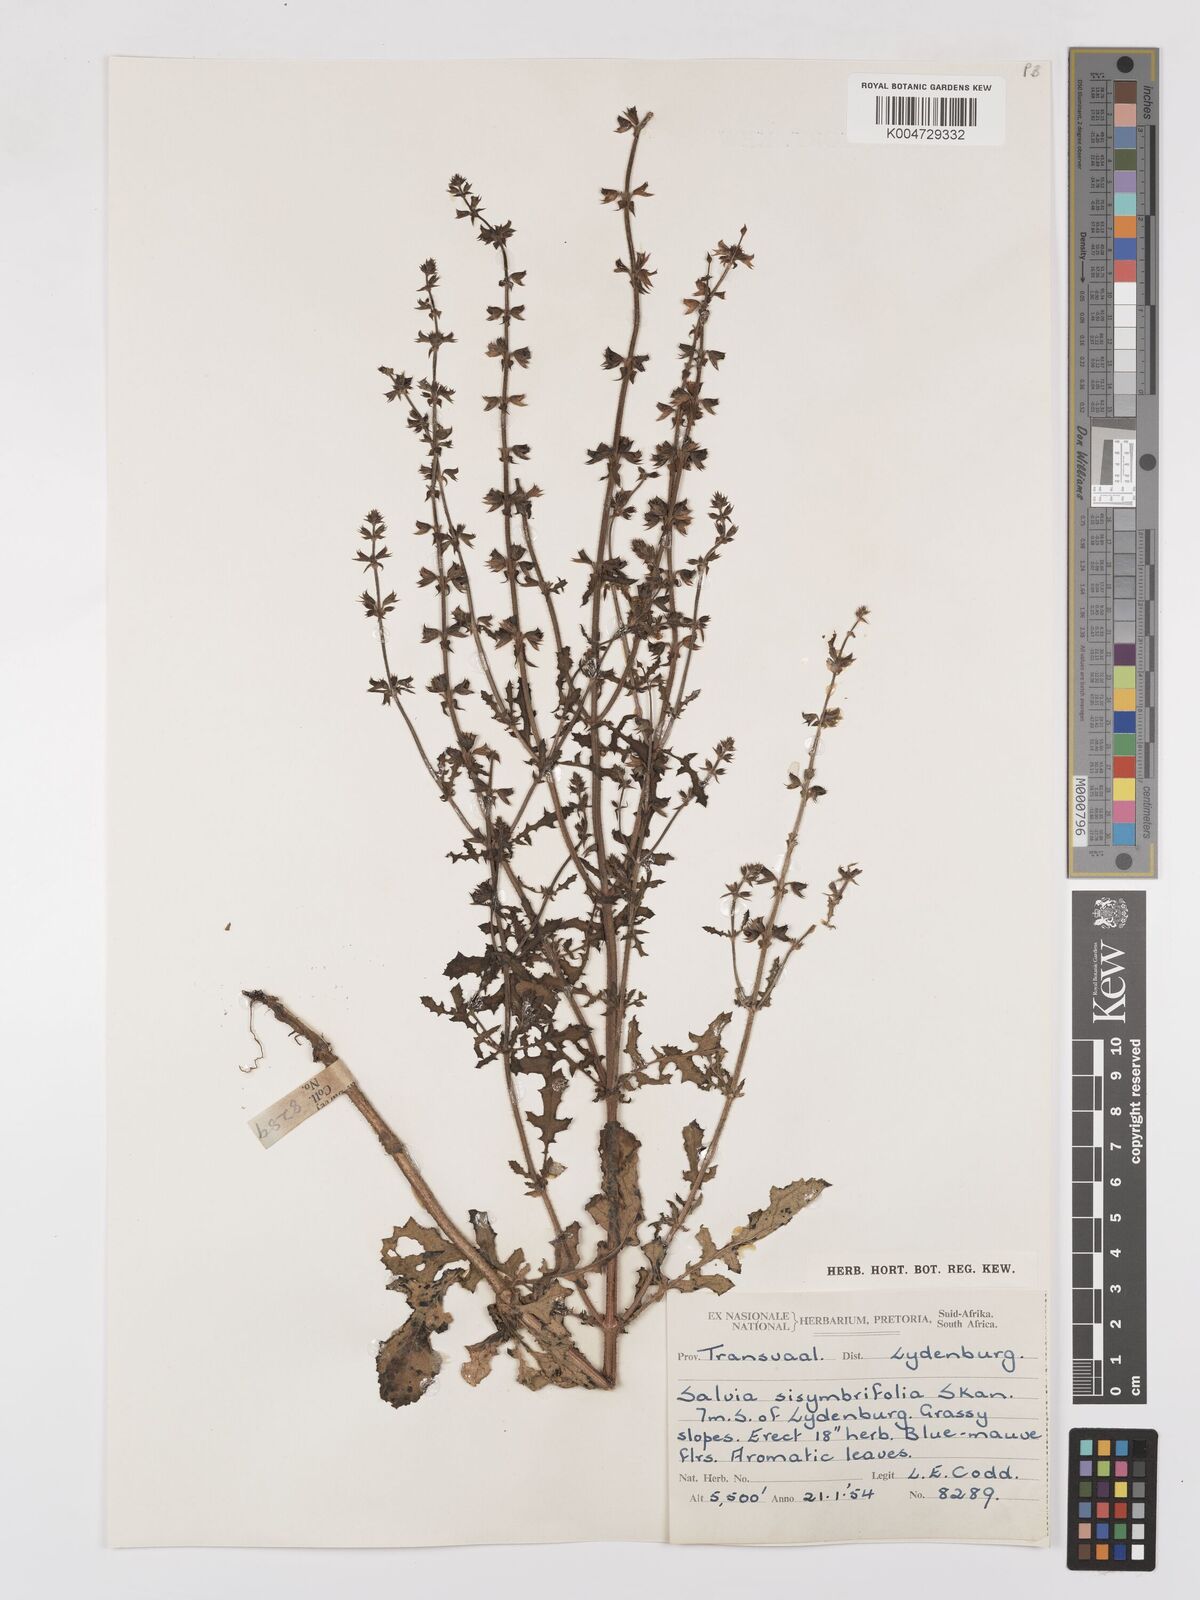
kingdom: Plantae
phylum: Tracheophyta
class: Magnoliopsida
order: Lamiales
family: Lamiaceae
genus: Salvia
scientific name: Salvia runcinata
